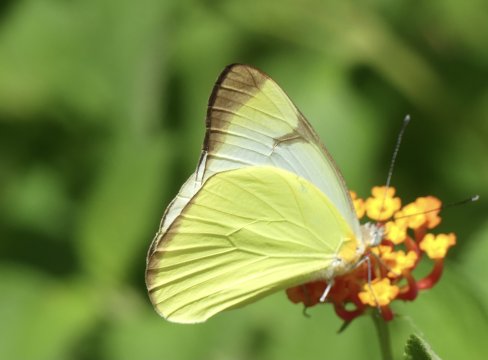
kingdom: Animalia
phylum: Arthropoda
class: Insecta
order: Lepidoptera
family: Pieridae
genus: Melete
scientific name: Melete polyhymnia
